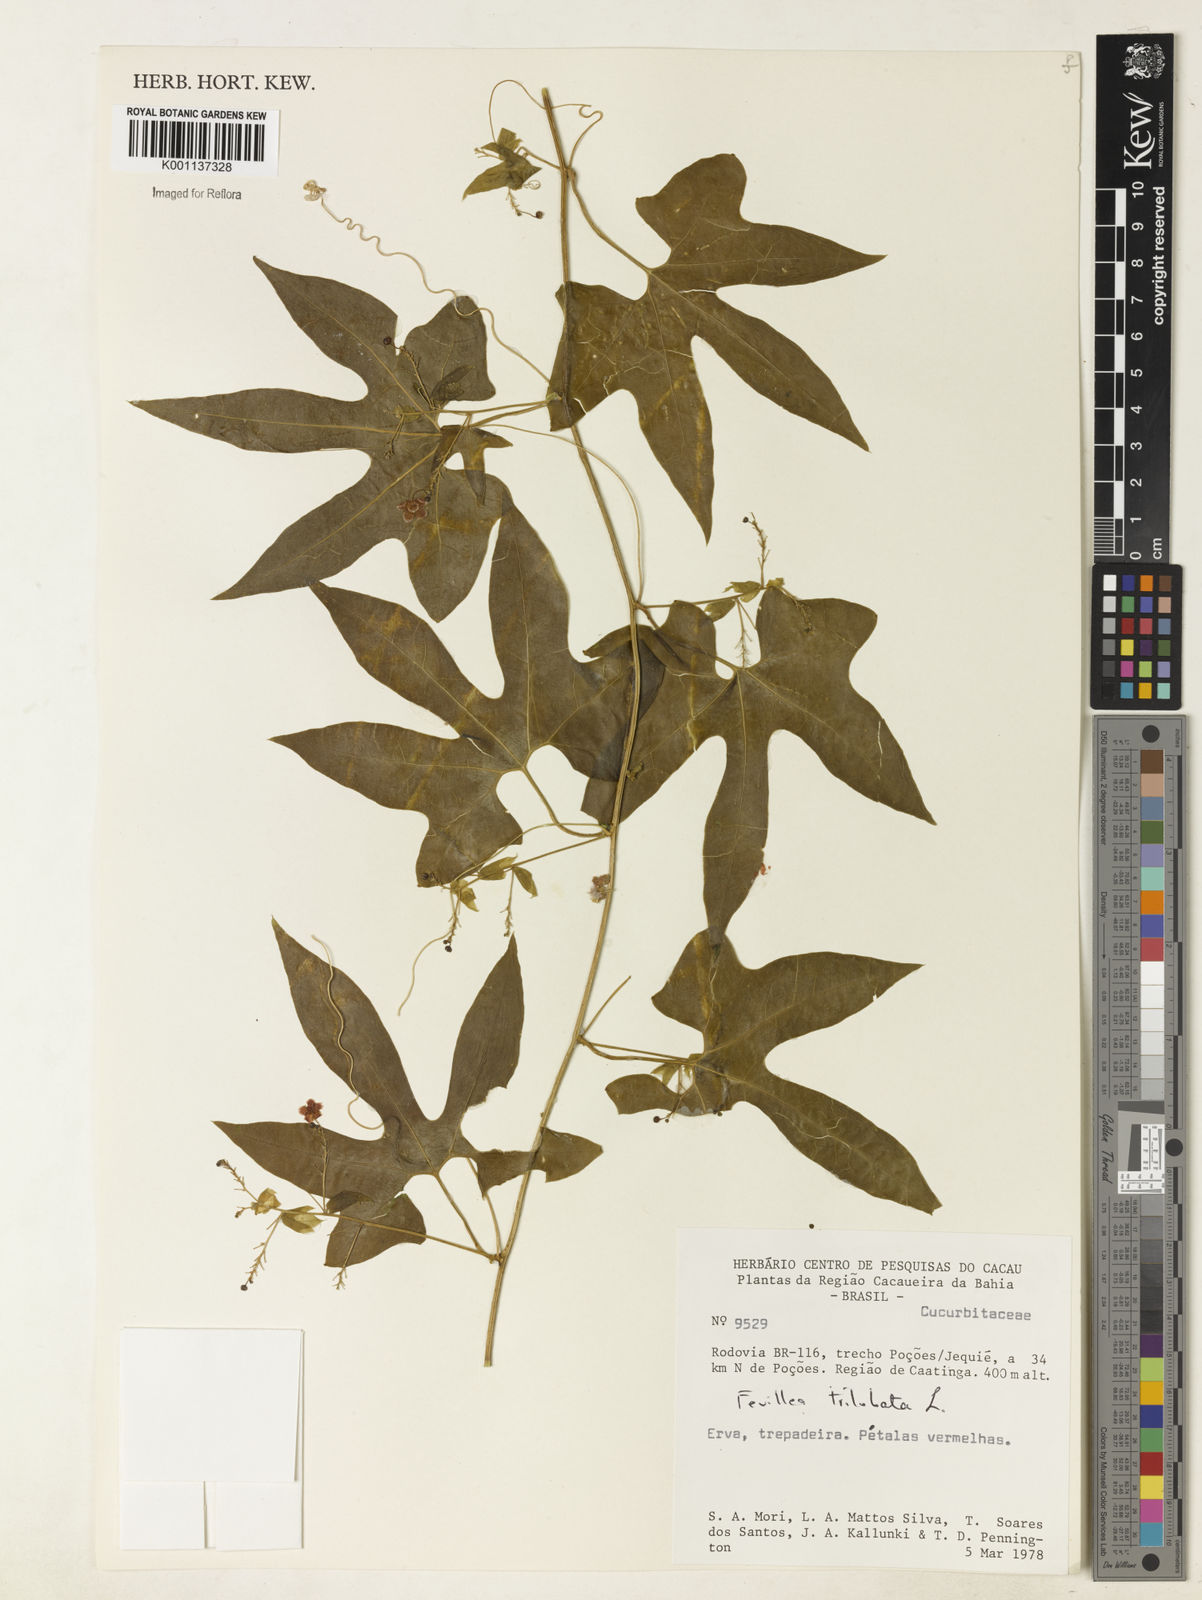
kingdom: Plantae
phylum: Tracheophyta
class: Magnoliopsida
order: Cucurbitales
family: Cucurbitaceae
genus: Fevillea
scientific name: Fevillea trilobata
